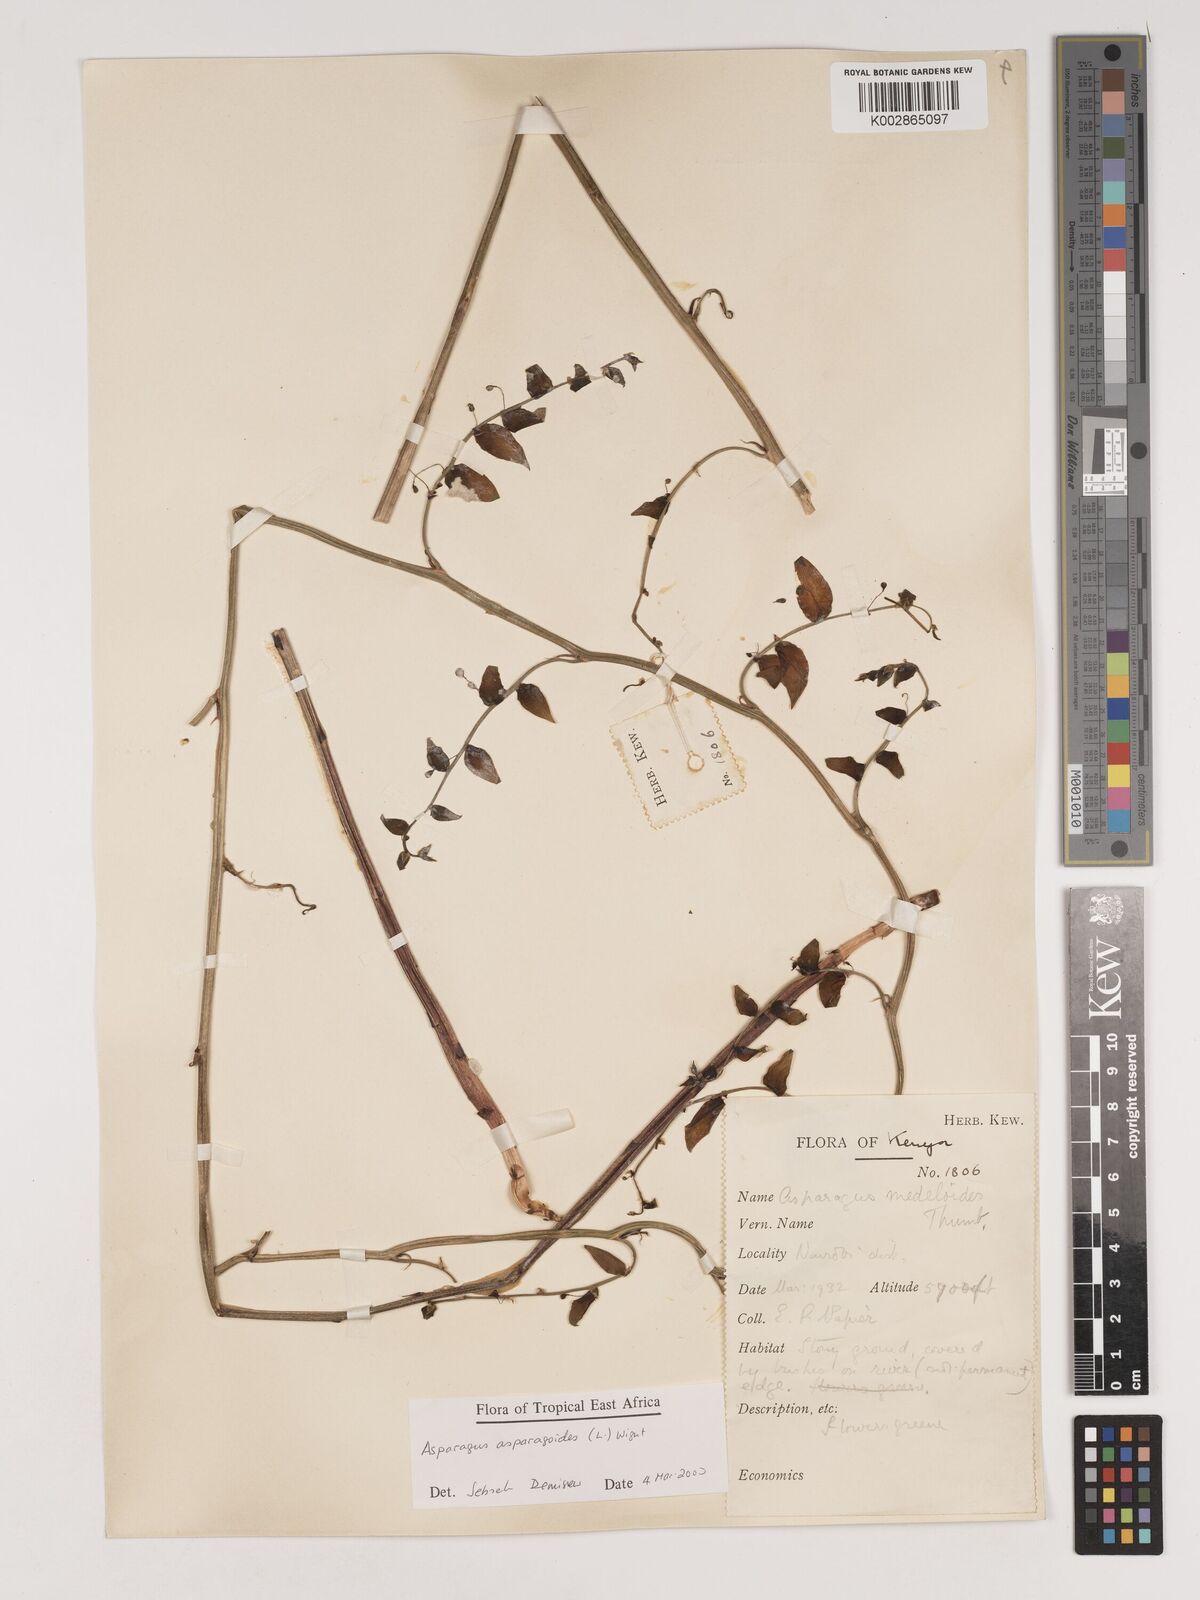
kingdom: Plantae
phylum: Tracheophyta
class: Liliopsida
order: Asparagales
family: Asparagaceae
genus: Asparagus
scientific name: Asparagus asparagoides
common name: African asparagus fern
